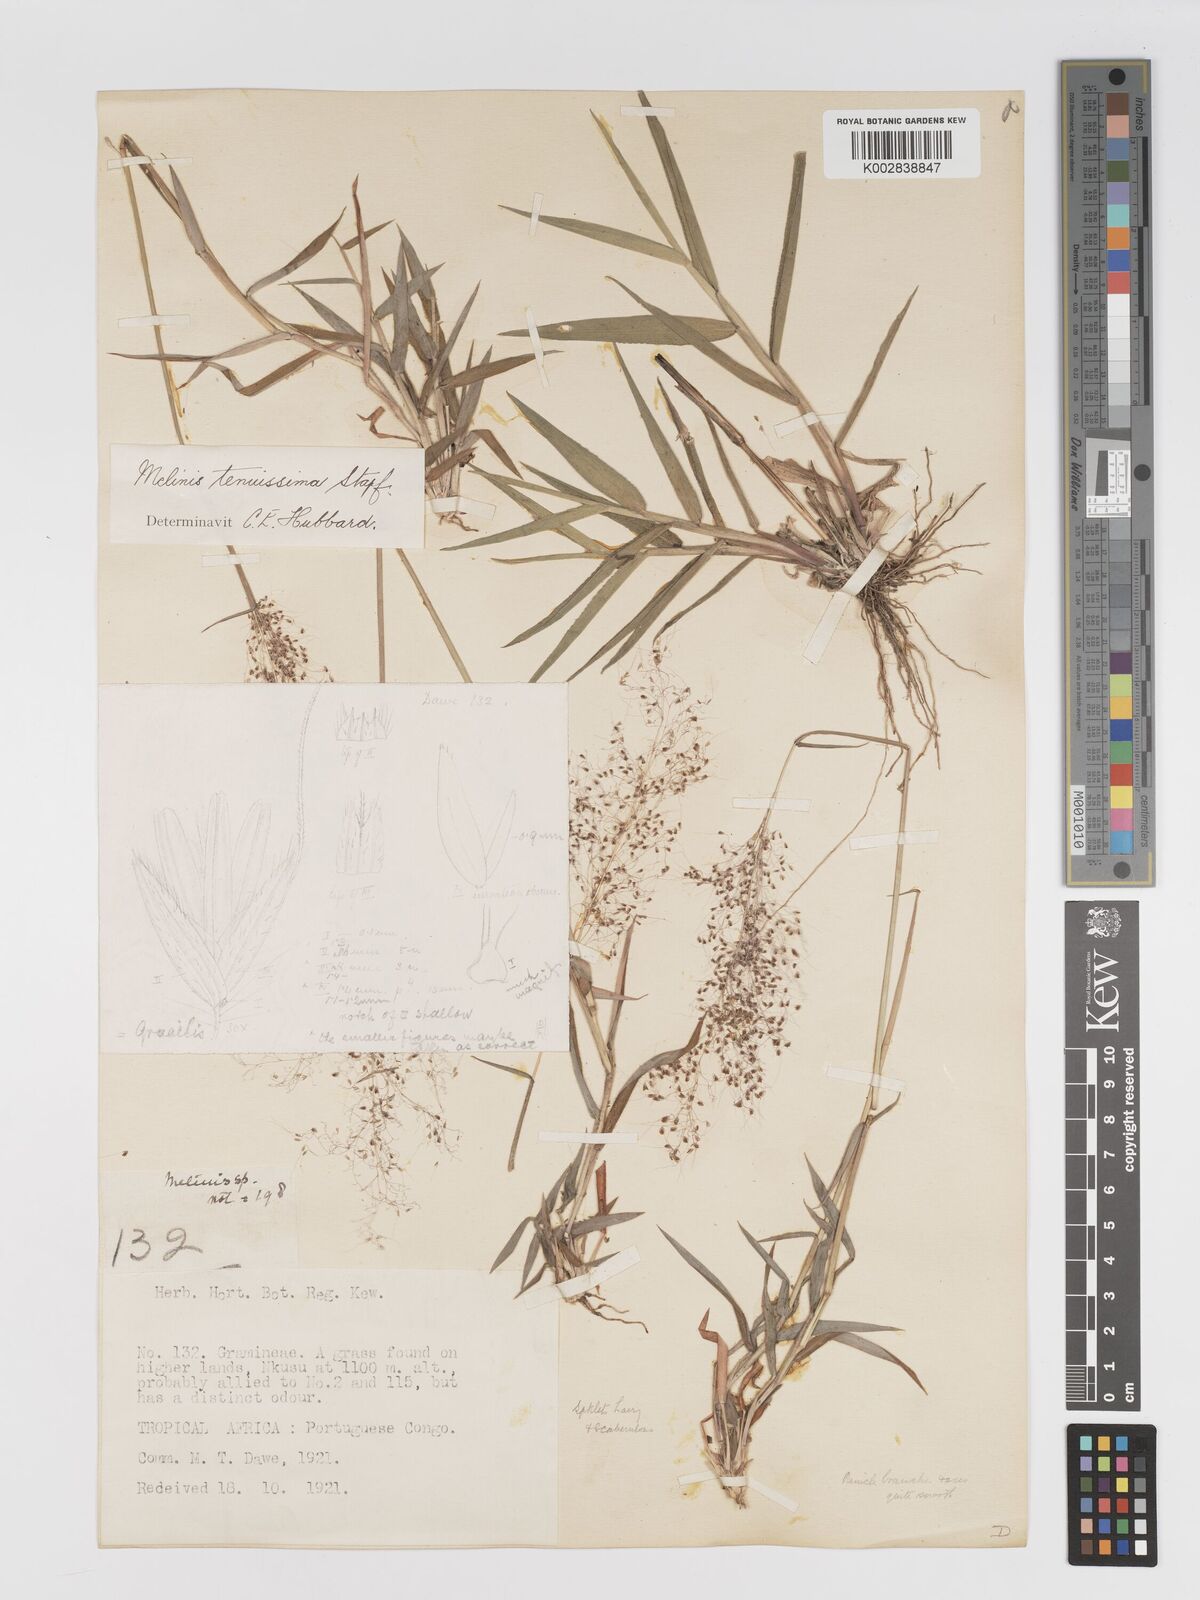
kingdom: Plantae
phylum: Tracheophyta
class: Liliopsida
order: Poales
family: Poaceae
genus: Melinis
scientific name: Melinis tenuissima
